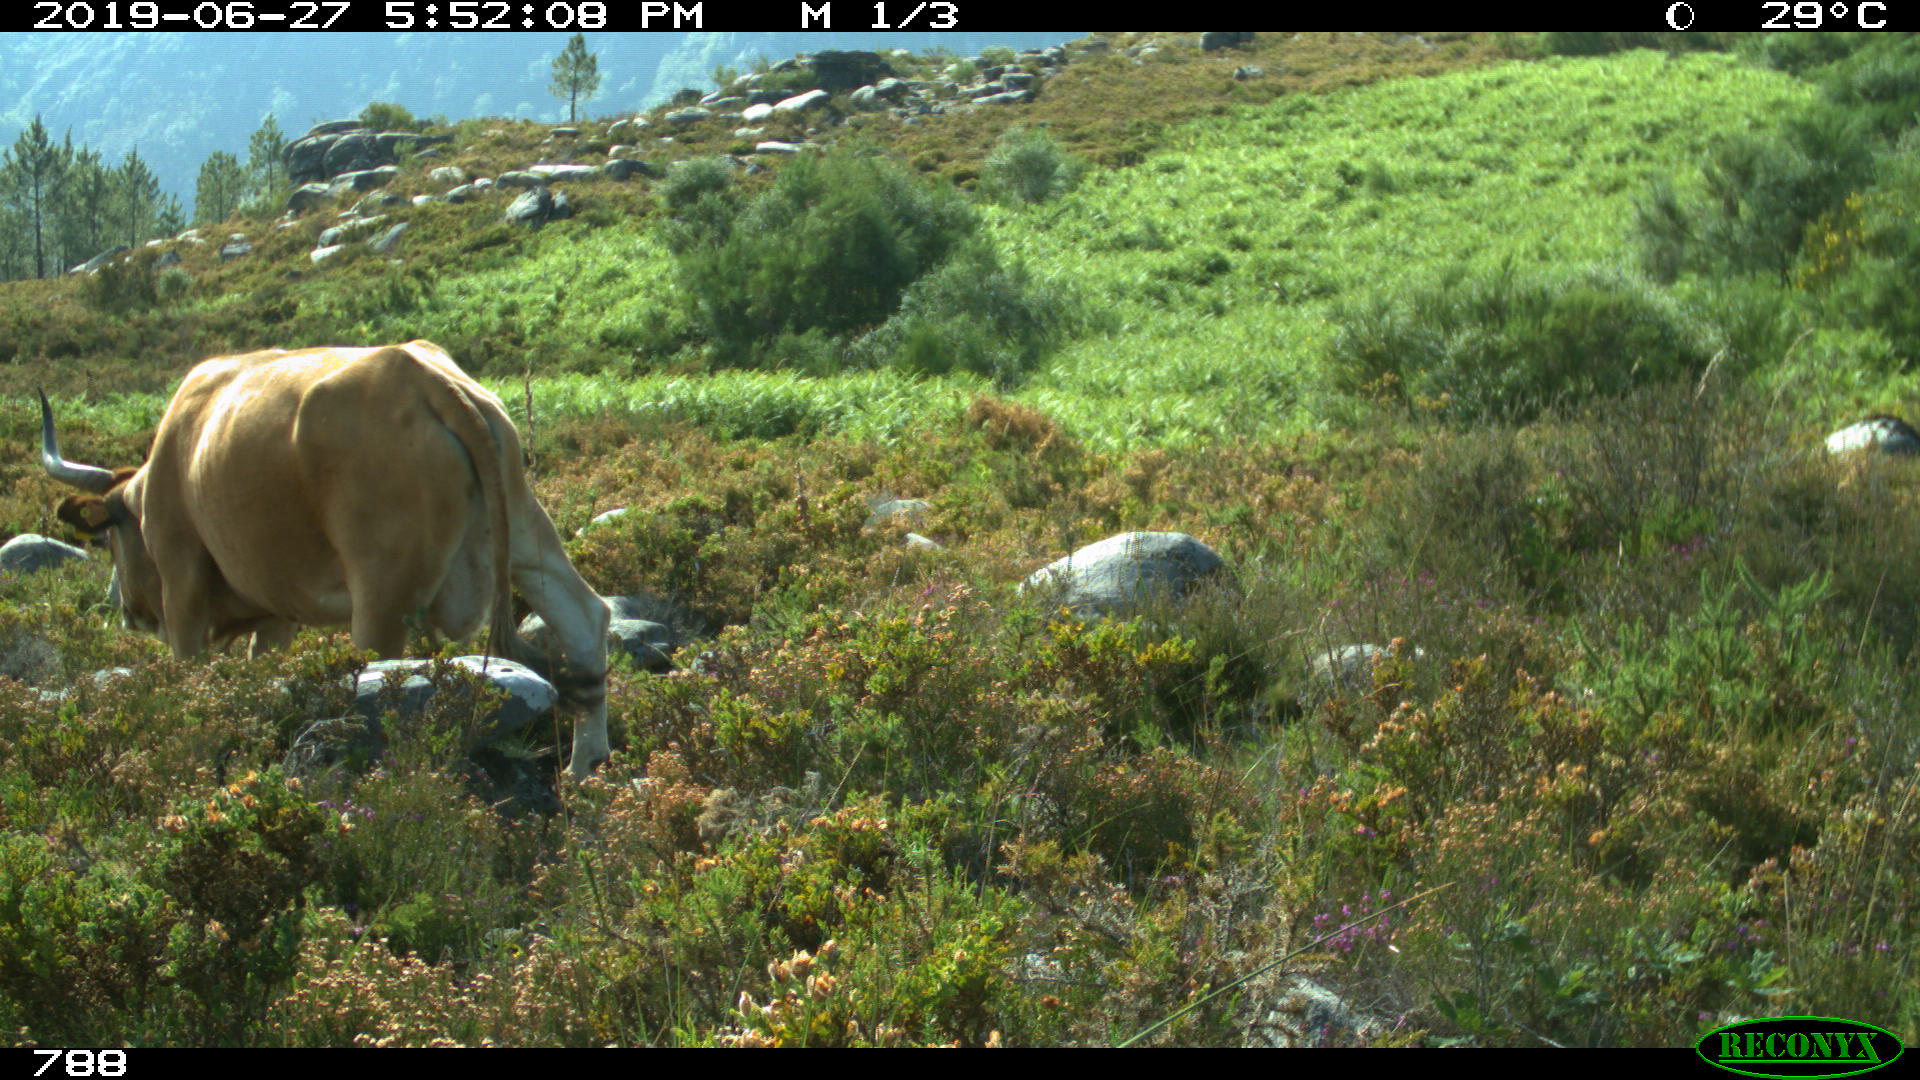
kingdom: Animalia
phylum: Chordata
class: Mammalia
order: Artiodactyla
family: Bovidae
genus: Bos
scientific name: Bos taurus
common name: Domesticated cattle
